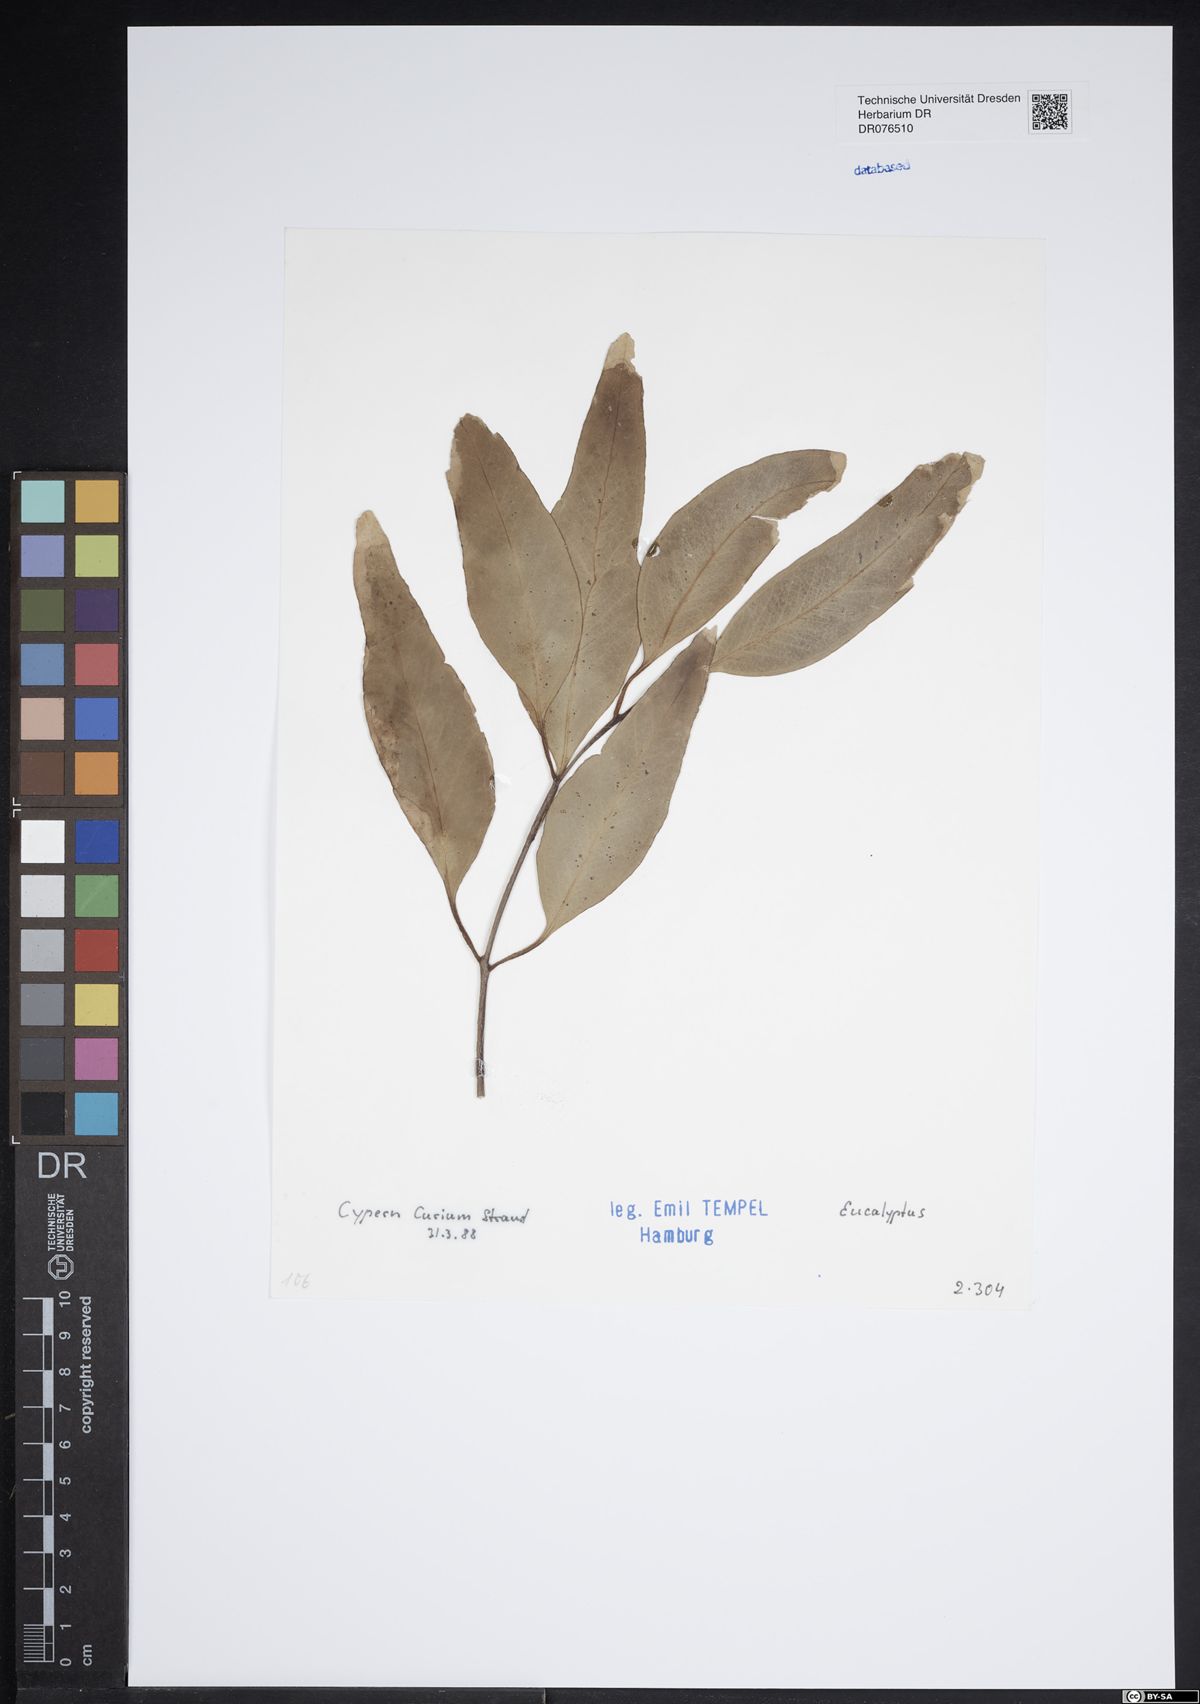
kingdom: Plantae
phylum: Tracheophyta
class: Magnoliopsida
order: Myrtales
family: Myrtaceae
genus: Eucalyptus
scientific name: Eucalyptus
